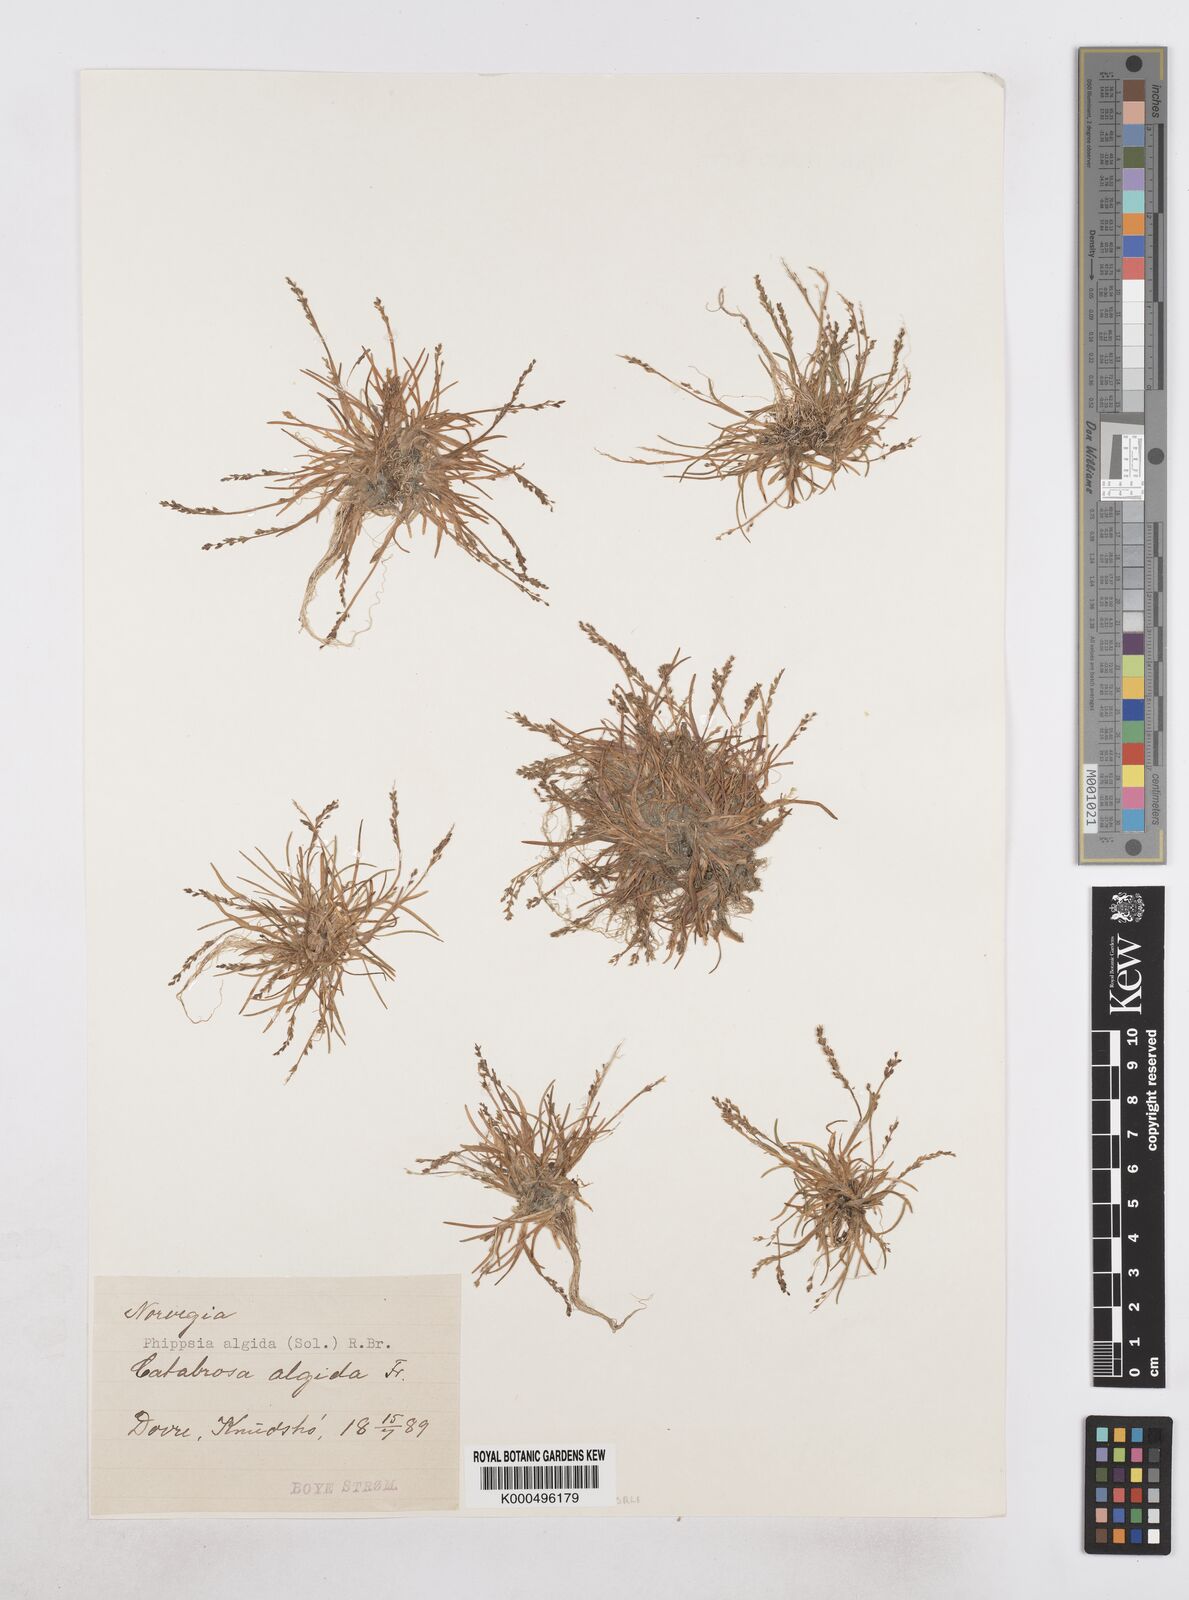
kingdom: Plantae
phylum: Tracheophyta
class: Liliopsida
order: Poales
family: Poaceae
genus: Phippsia
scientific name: Phippsia algida
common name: Ice grass
